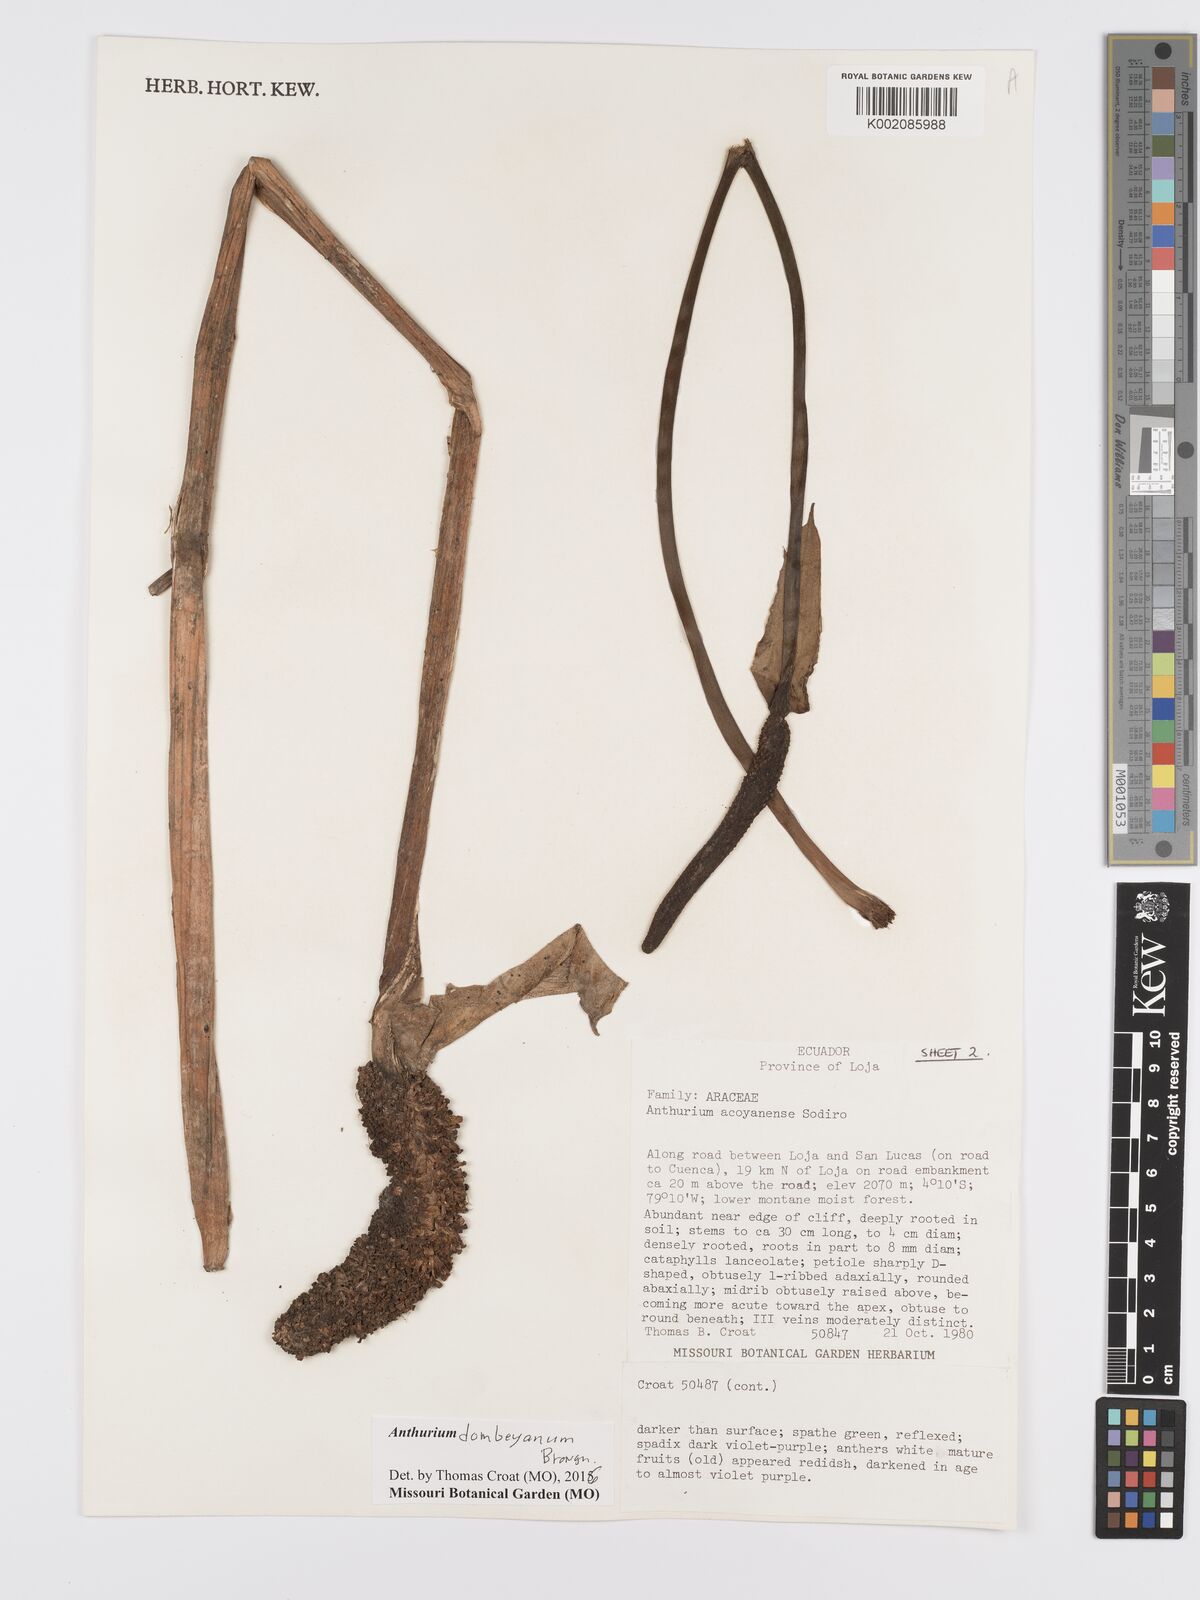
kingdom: Plantae
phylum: Tracheophyta
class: Liliopsida
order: Alismatales
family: Araceae
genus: Anthurium
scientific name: Anthurium dombeyanum
